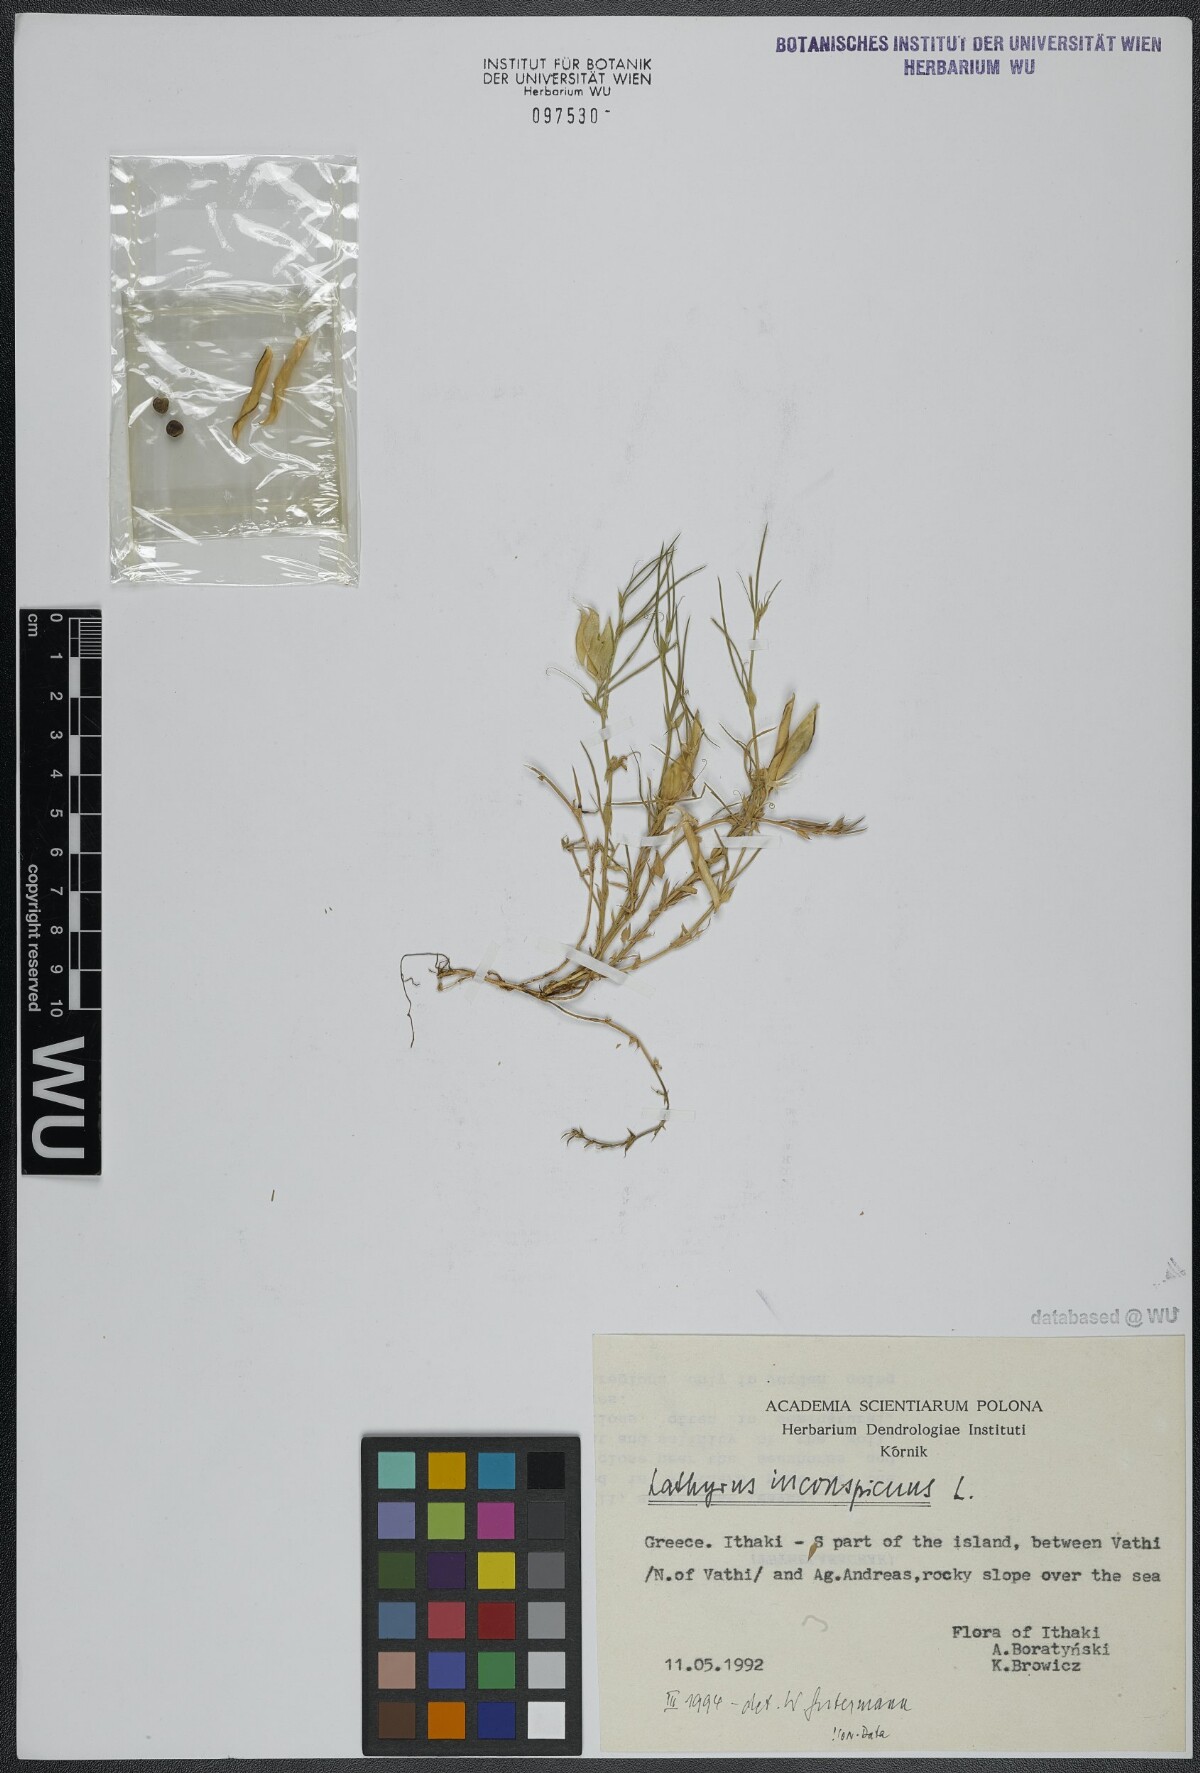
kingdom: Plantae
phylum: Tracheophyta
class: Magnoliopsida
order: Fabales
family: Fabaceae
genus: Lathyrus
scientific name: Lathyrus inconspicuus
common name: Inconspicuous pea
